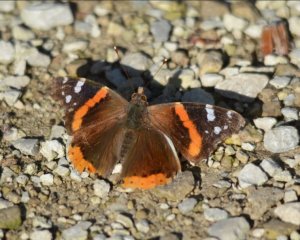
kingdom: Animalia
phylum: Arthropoda
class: Insecta
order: Lepidoptera
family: Nymphalidae
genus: Vanessa
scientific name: Vanessa atalanta
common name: Red Admiral
